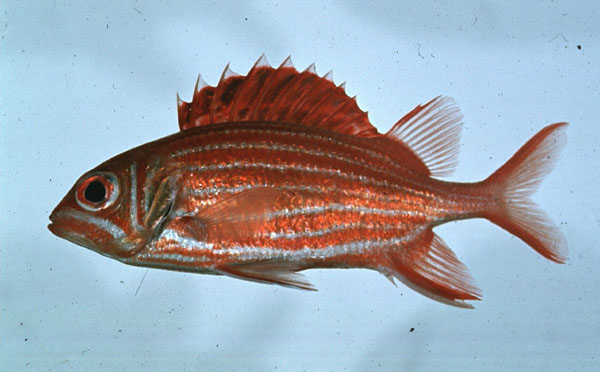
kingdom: Animalia
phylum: Chordata
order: Beryciformes
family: Holocentridae
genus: Sargocentron
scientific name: Sargocentron diadema
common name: Crown squirrelfish
